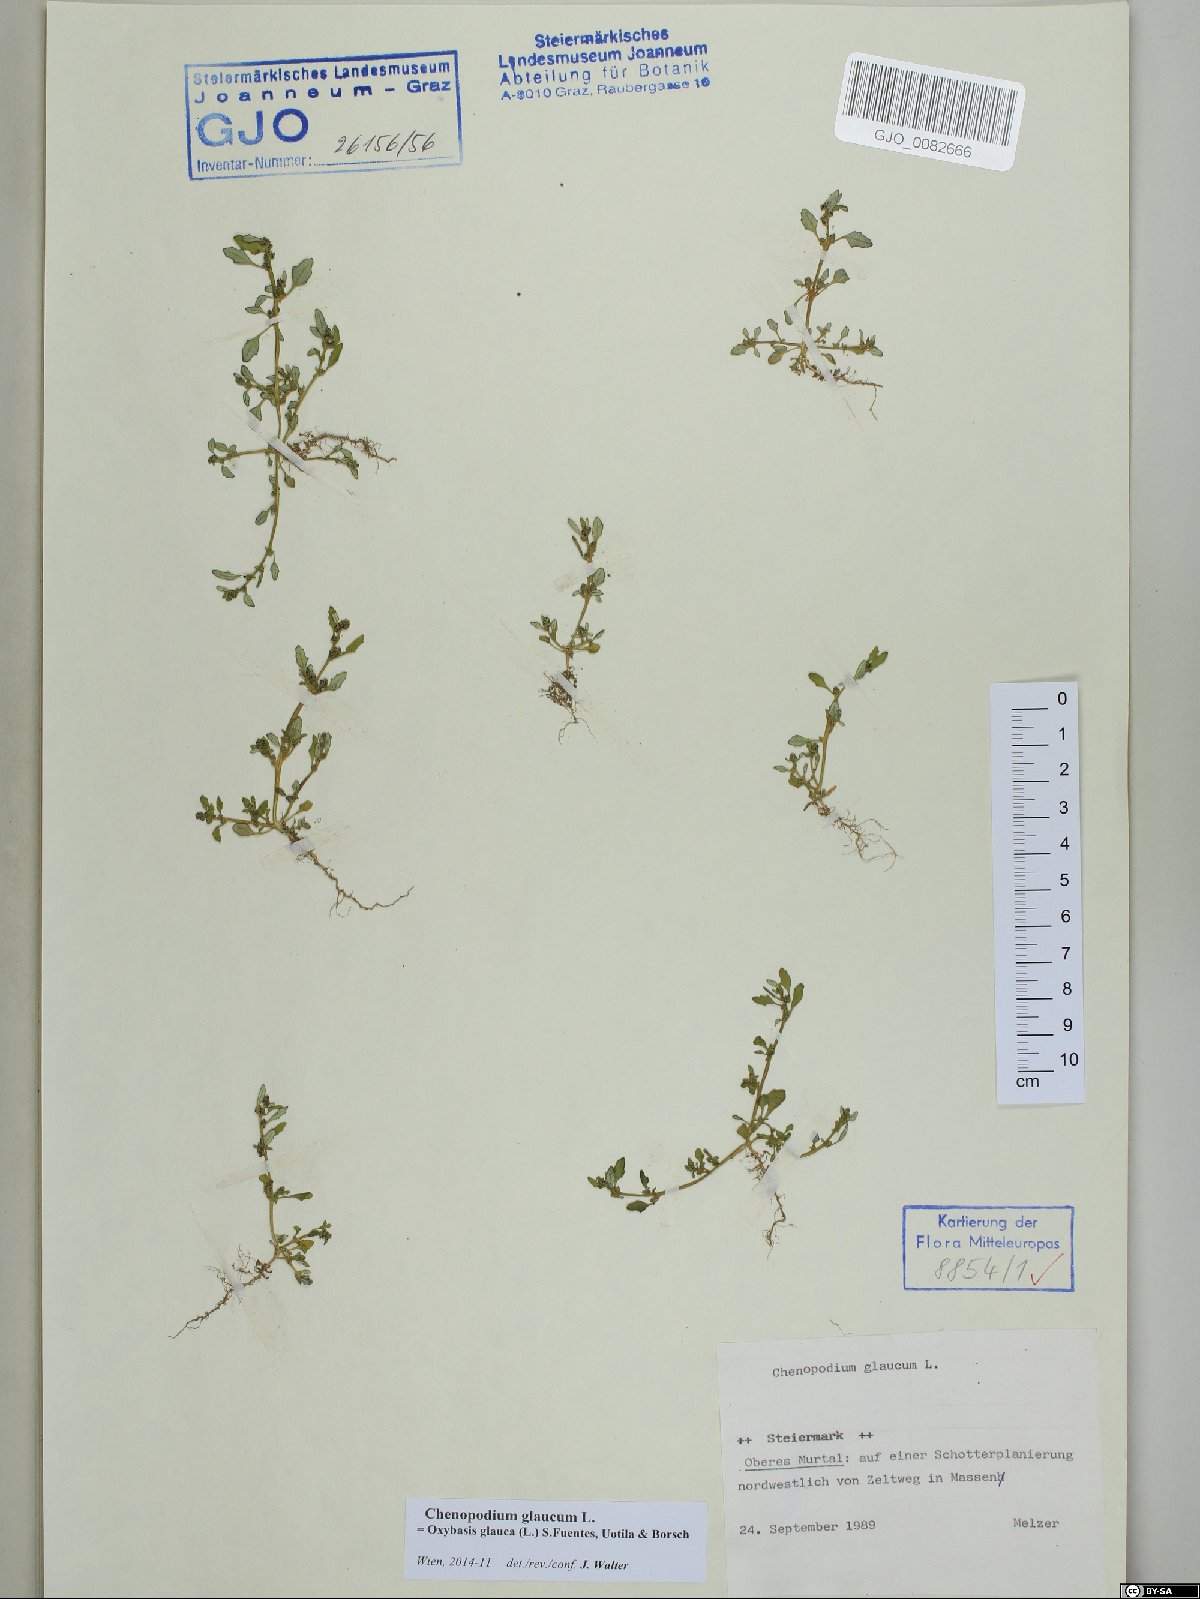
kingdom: Plantae
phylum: Tracheophyta
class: Magnoliopsida
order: Caryophyllales
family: Amaranthaceae
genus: Oxybasis
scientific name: Oxybasis glauca
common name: Glaucous goosefoot
